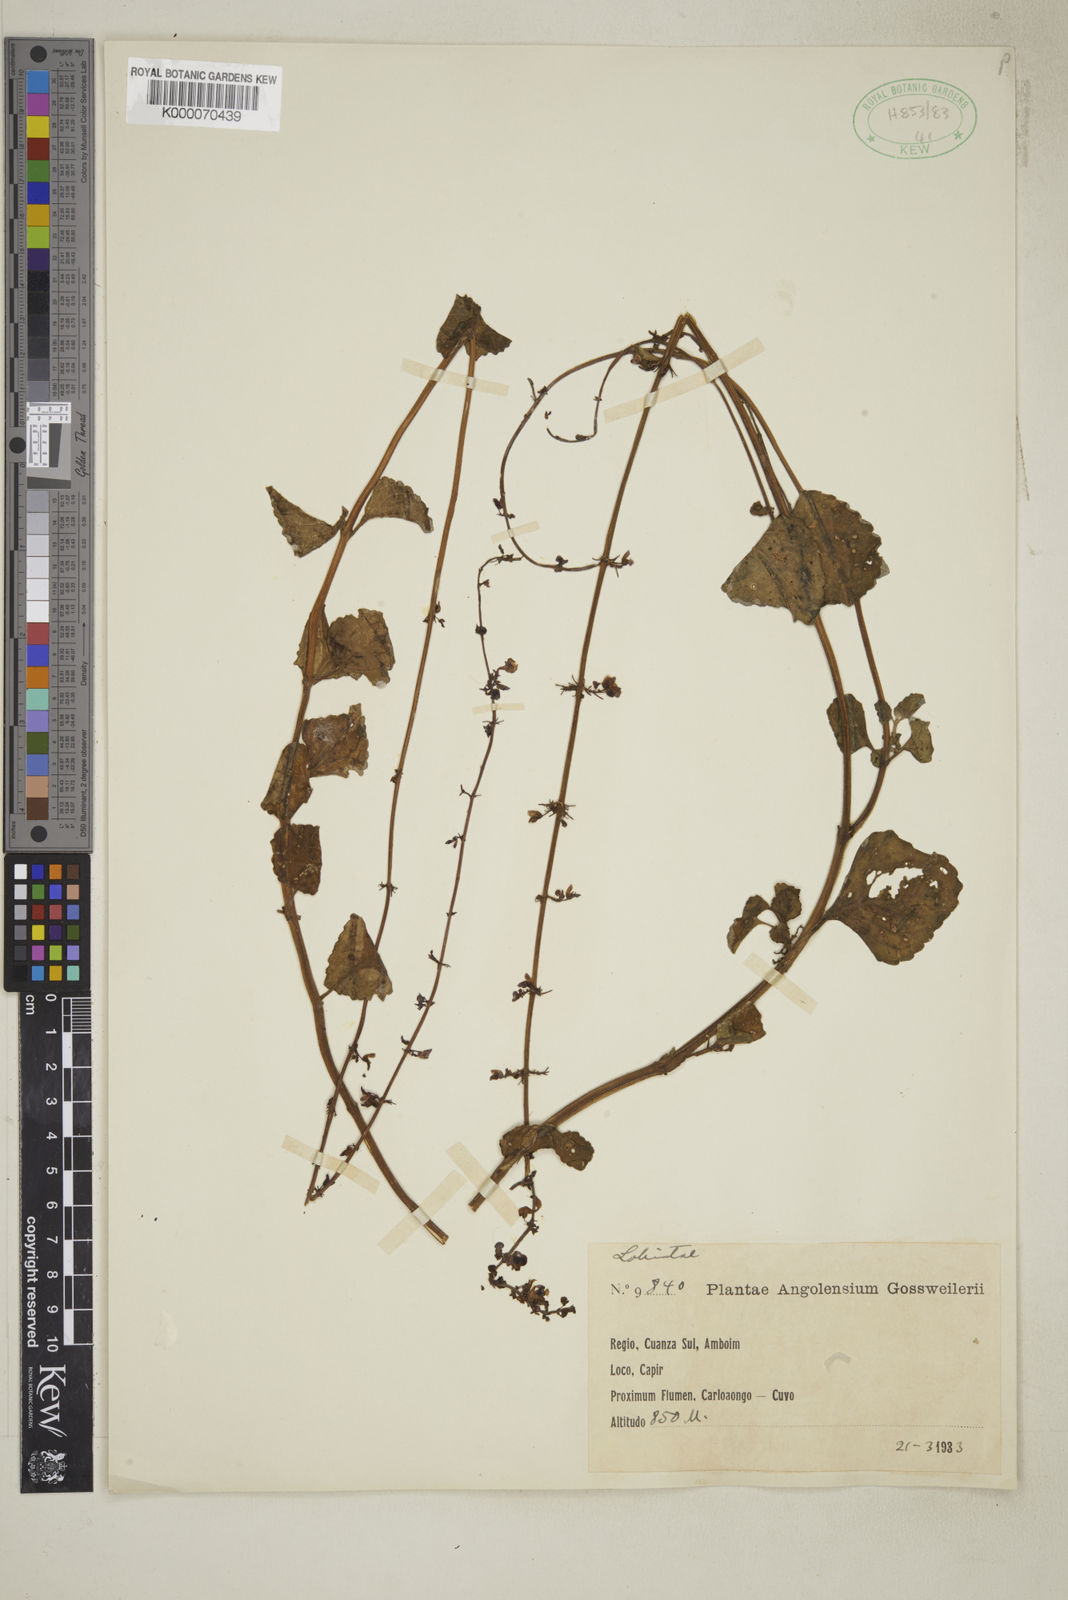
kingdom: Plantae
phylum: Tracheophyta
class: Magnoliopsida
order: Lamiales
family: Lamiaceae
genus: Coleus
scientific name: Coleus monostachyus
